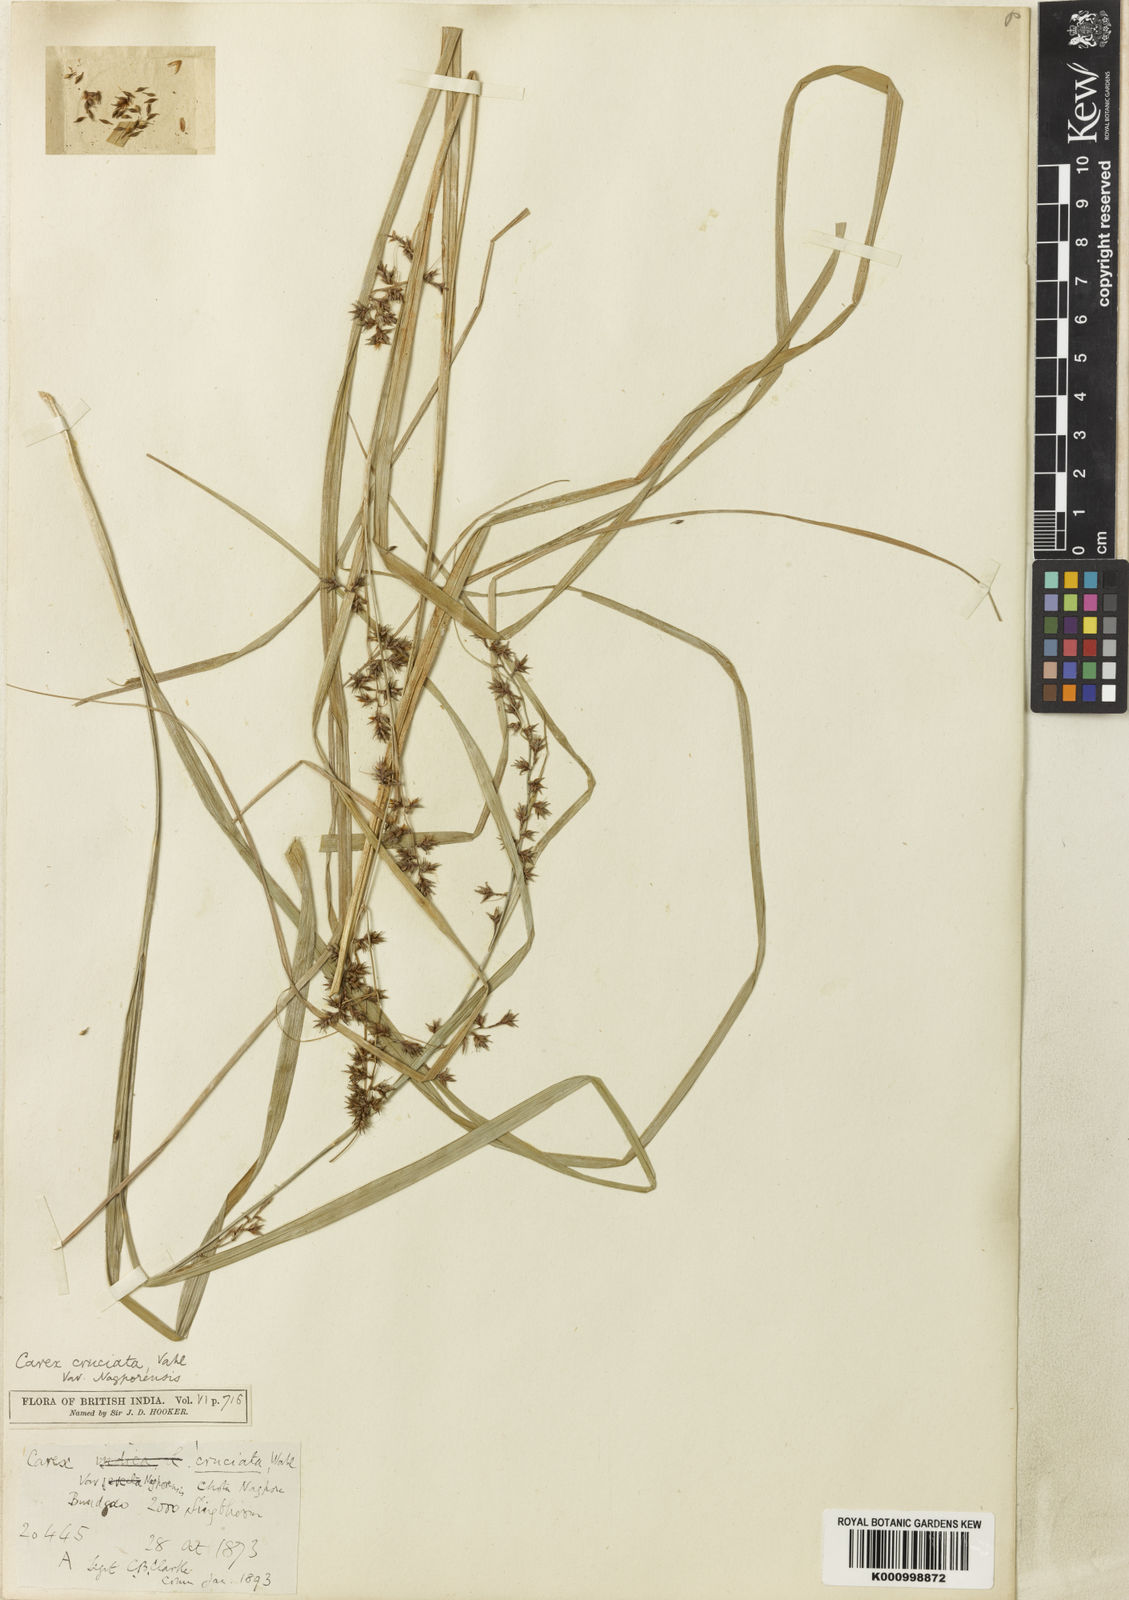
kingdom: Plantae
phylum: Tracheophyta
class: Liliopsida
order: Poales
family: Cyperaceae
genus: Carex
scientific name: Carex cruciata
